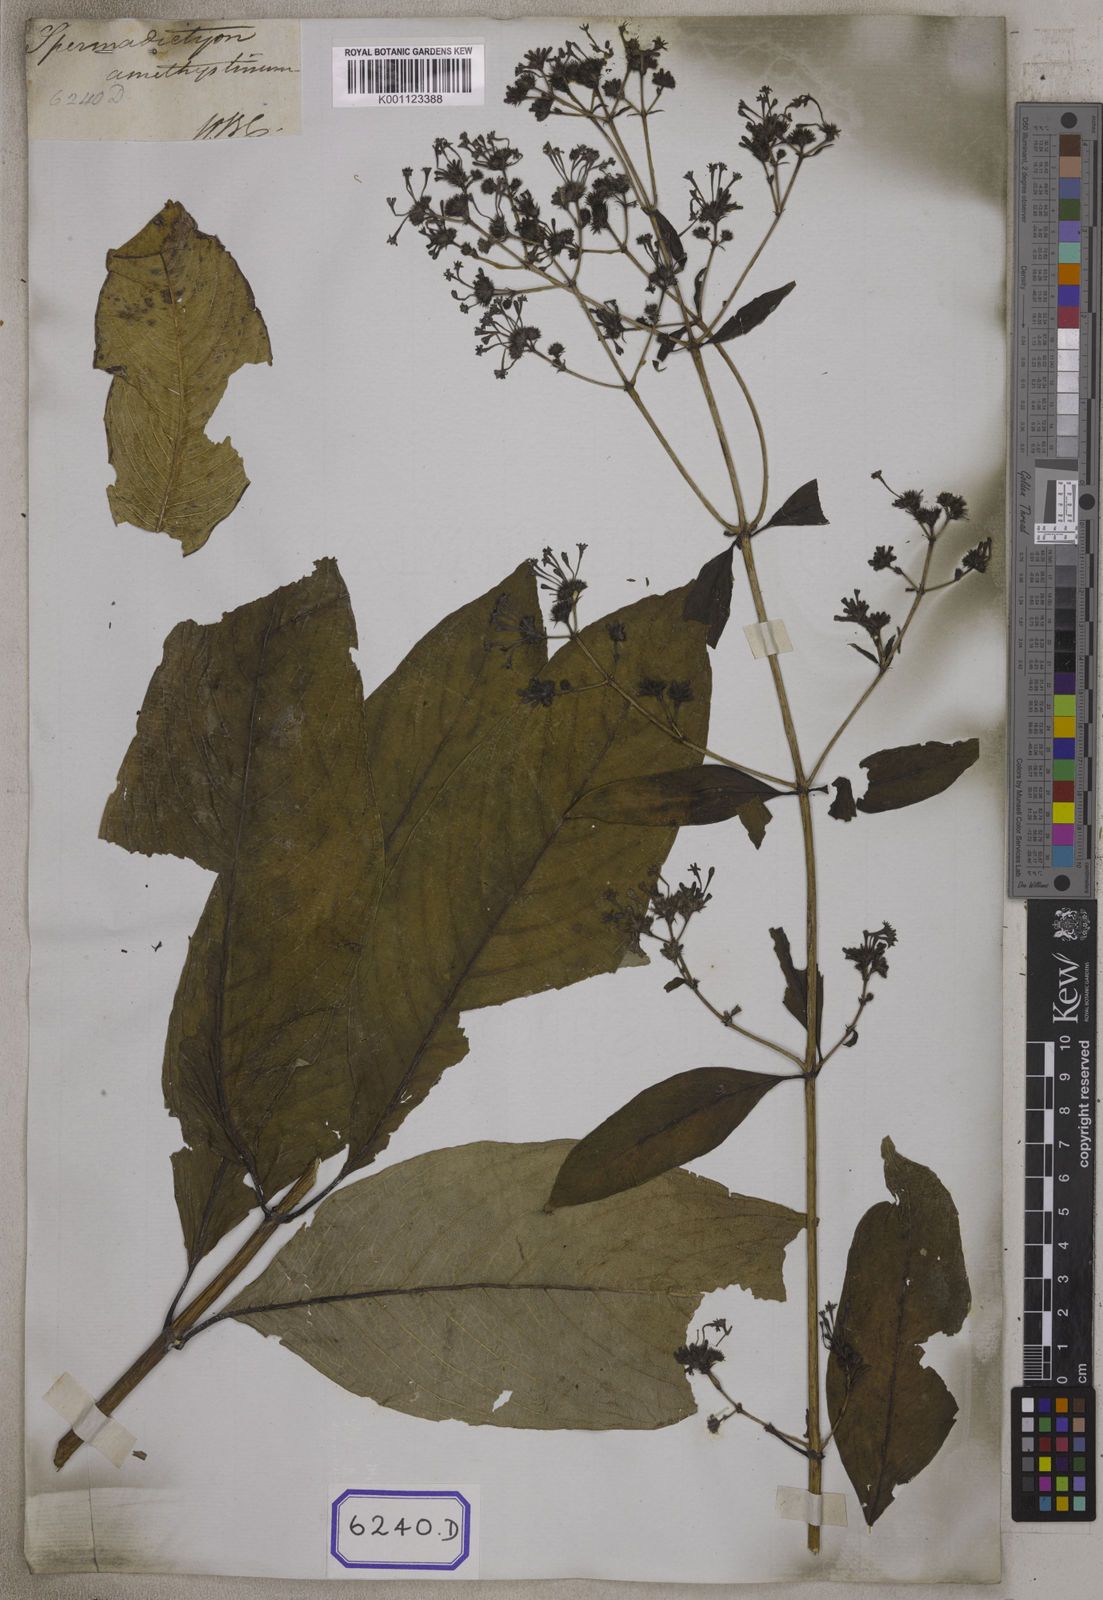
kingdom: Plantae
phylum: Tracheophyta
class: Magnoliopsida
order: Gentianales
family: Rubiaceae
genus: Spermadictyon
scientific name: Spermadictyon suaveolens
